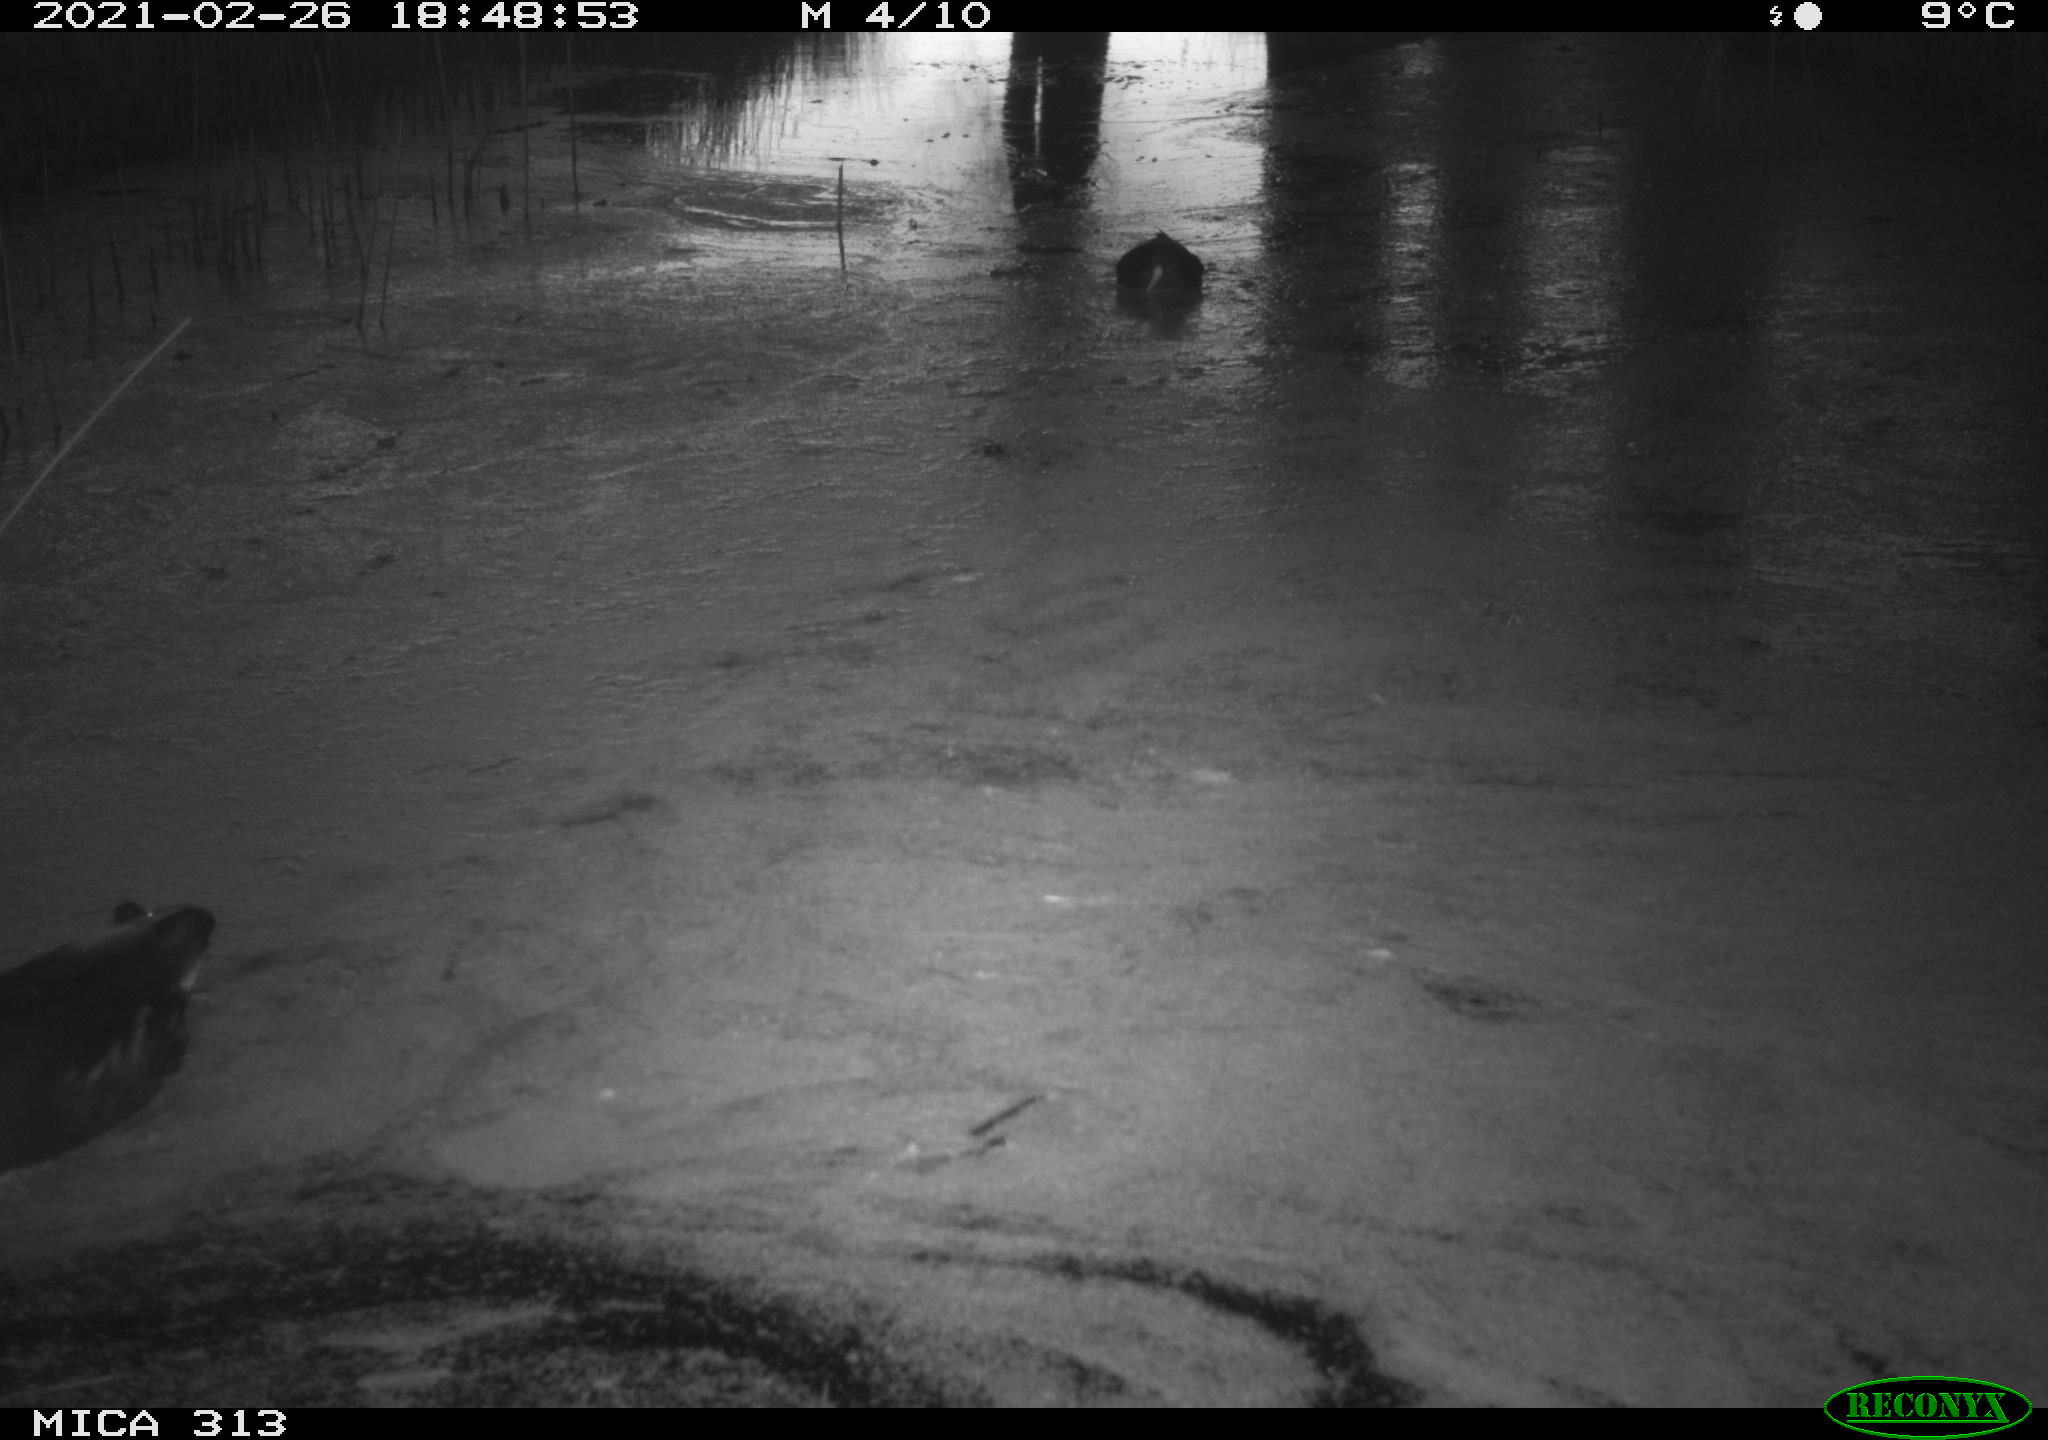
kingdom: Animalia
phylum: Chordata
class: Aves
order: Gruiformes
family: Rallidae
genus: Gallinula
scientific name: Gallinula chloropus
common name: Common moorhen
